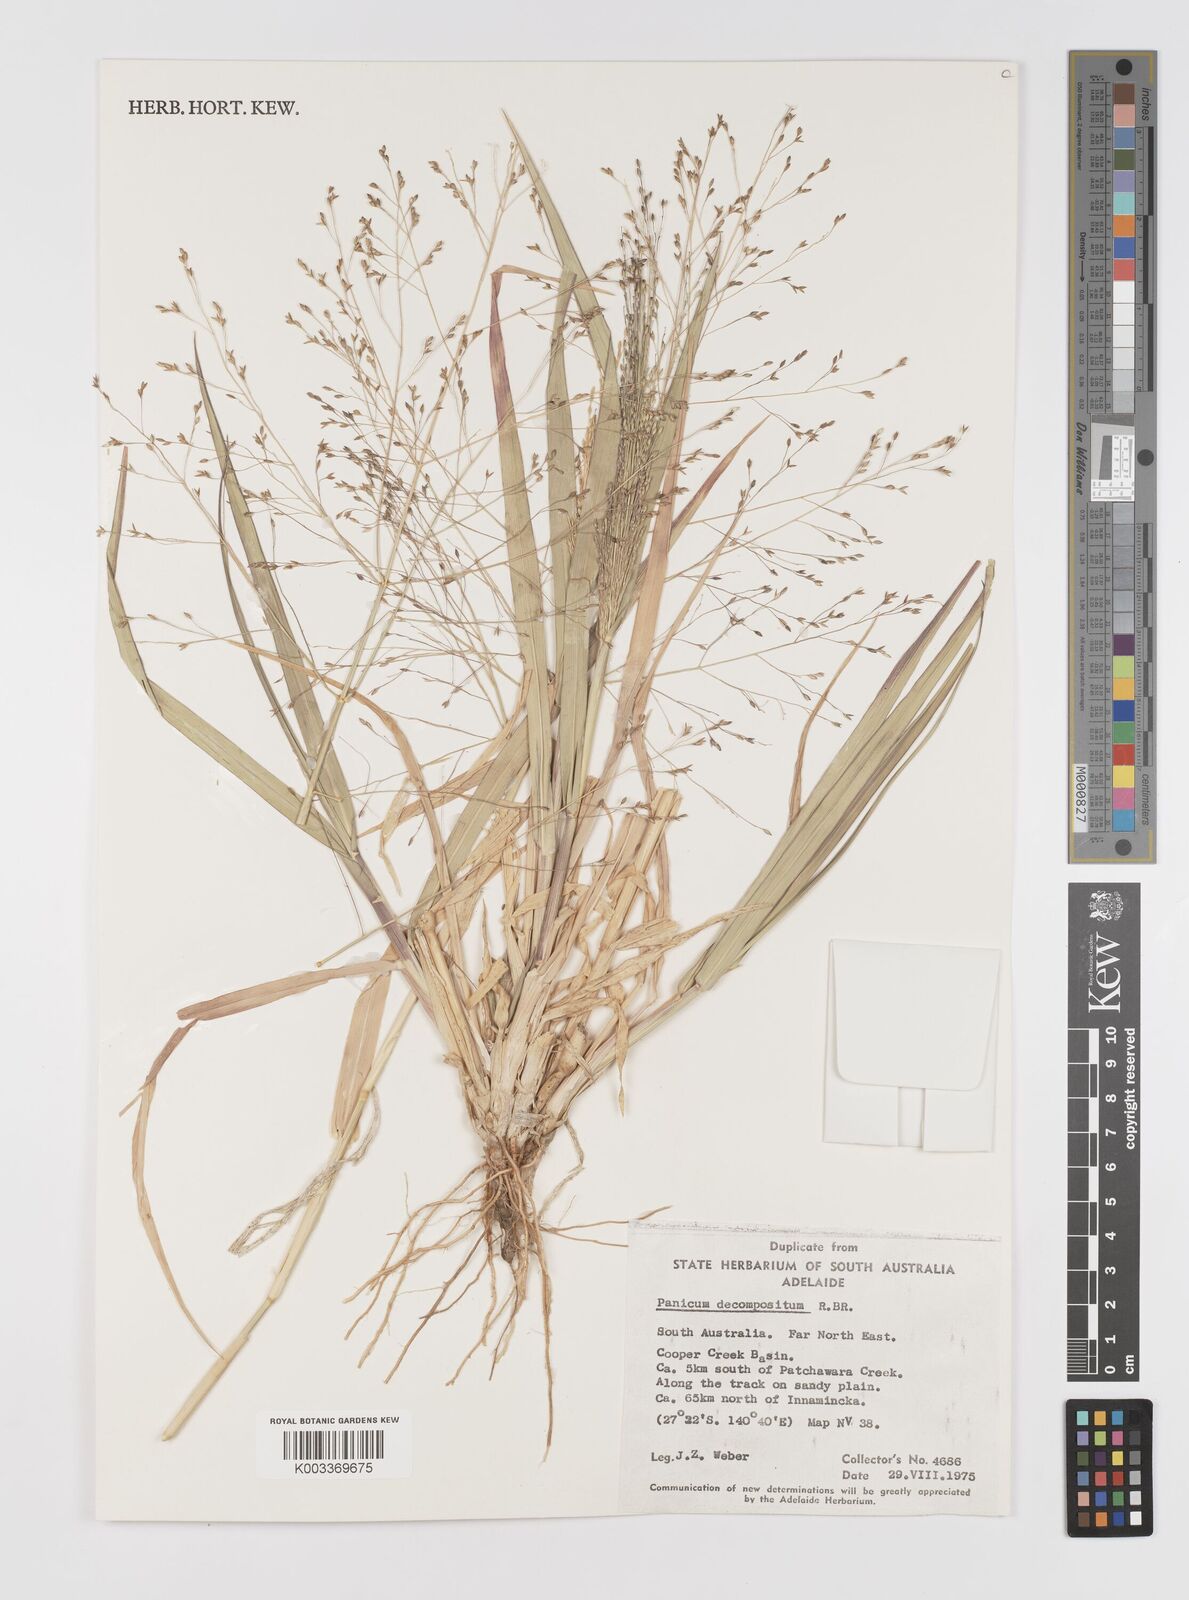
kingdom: Plantae
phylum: Tracheophyta
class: Liliopsida
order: Poales
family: Poaceae
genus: Panicum
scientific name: Panicum decompositum
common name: Australian millet
